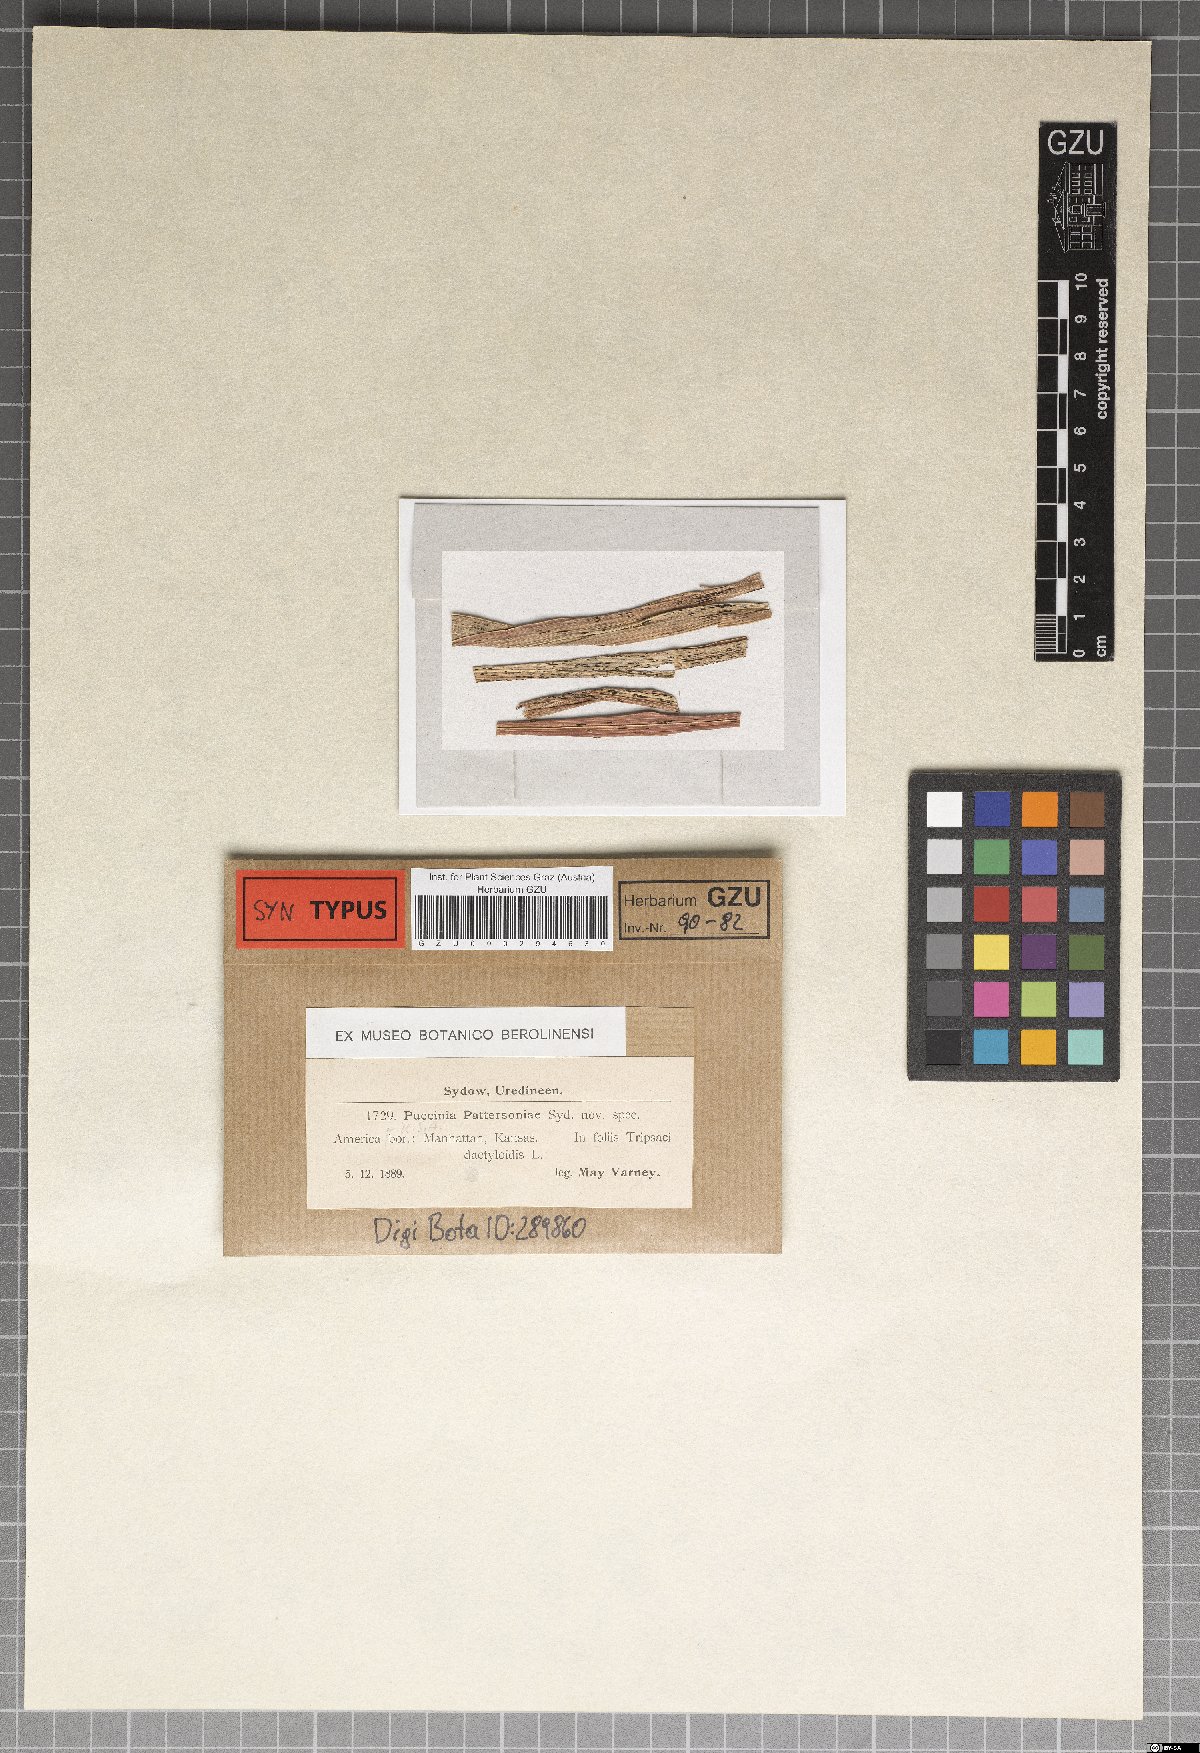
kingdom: Fungi
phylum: Basidiomycota
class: Pucciniomycetes
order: Pucciniales
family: Pucciniaceae
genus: Puccinia
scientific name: Puccinia pattersoniae
